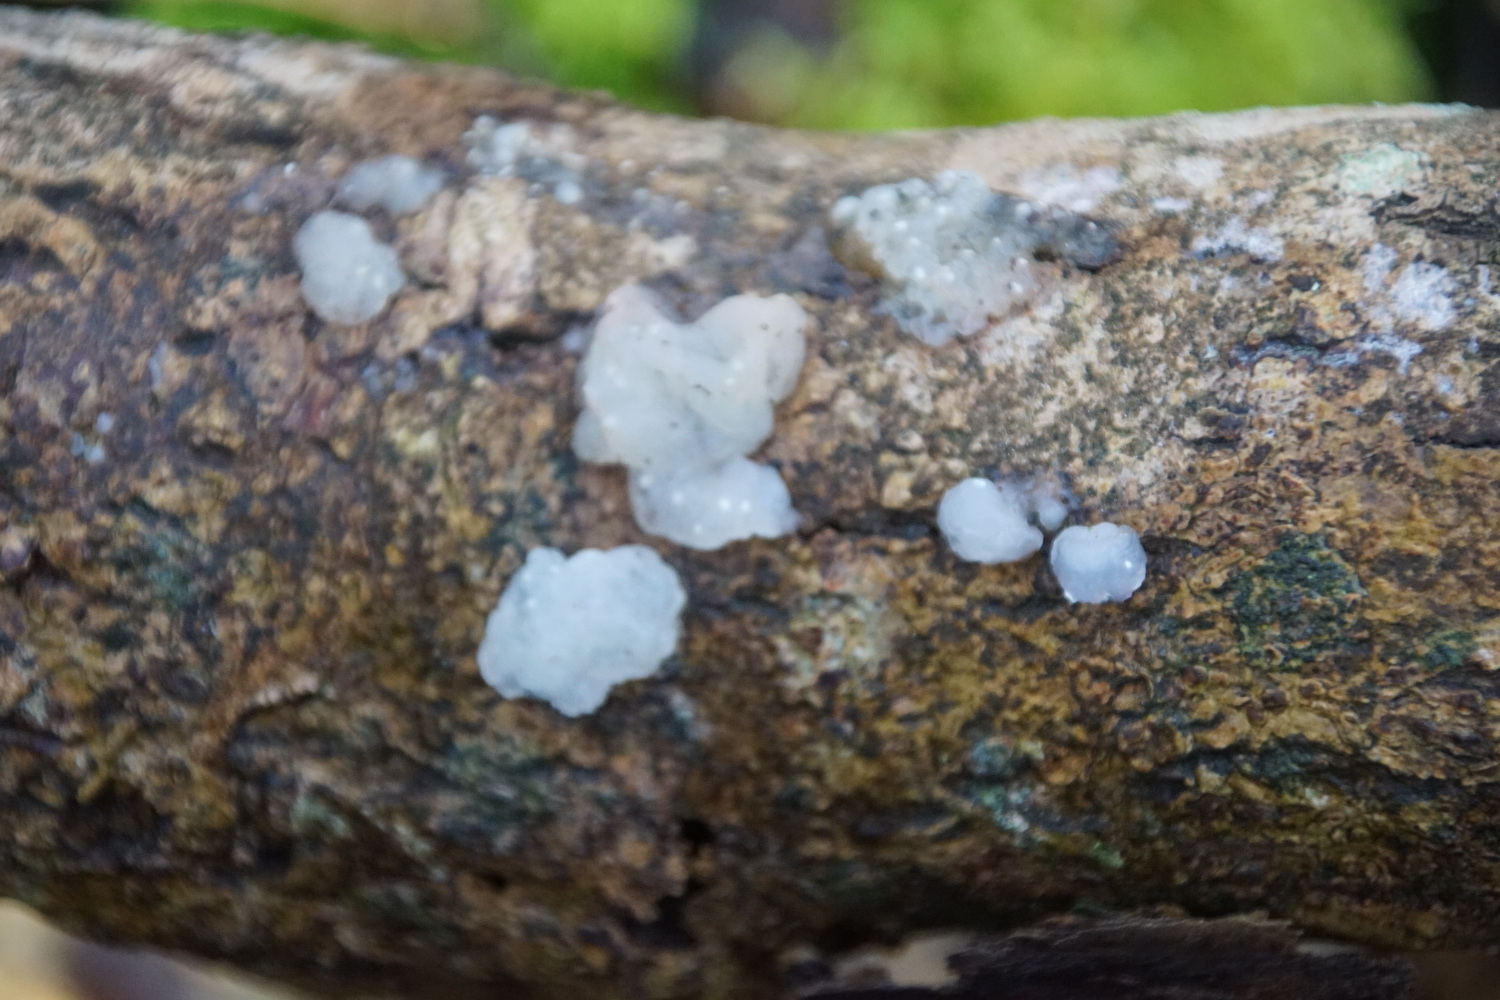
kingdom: Fungi
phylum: Basidiomycota
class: Agaricomycetes
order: Auriculariales
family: Hyaloriaceae
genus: Myxarium
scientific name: Myxarium nucleatum
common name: klar bævretop
